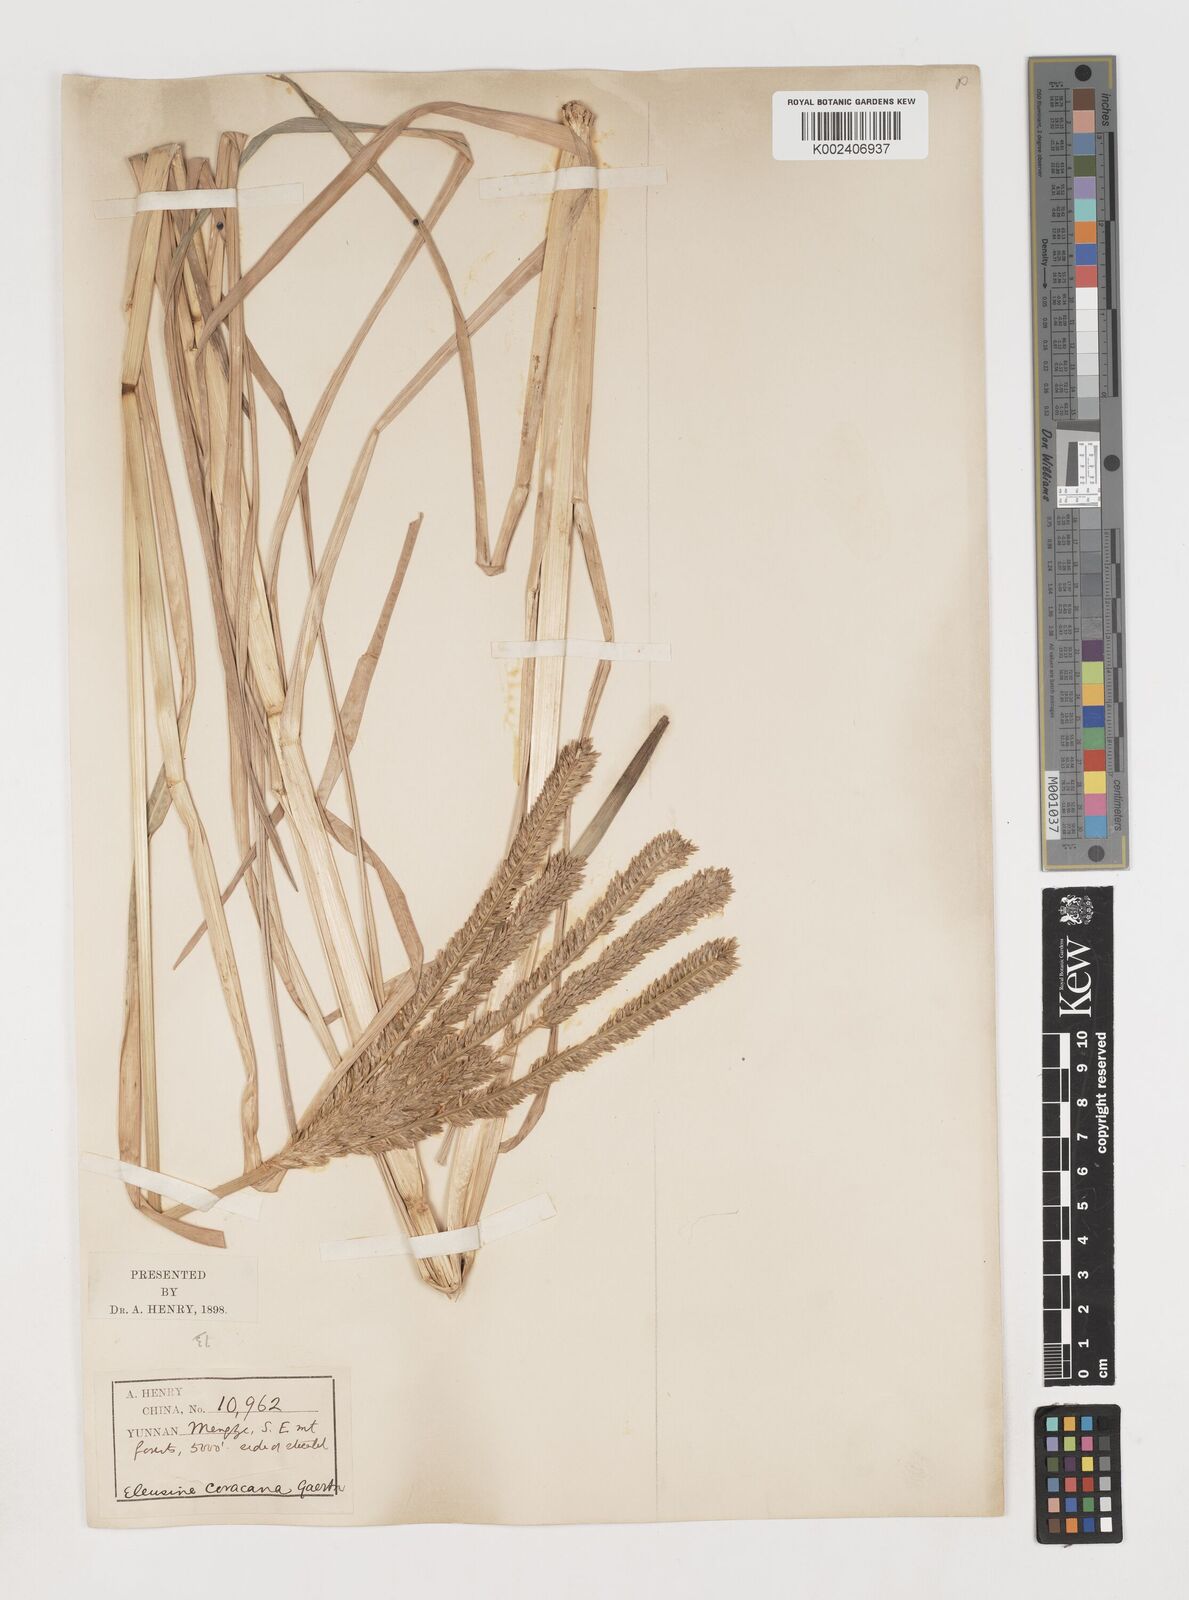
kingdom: Plantae
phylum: Tracheophyta
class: Liliopsida
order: Poales
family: Poaceae
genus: Eleusine
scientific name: Eleusine coracana
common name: Finger millet
